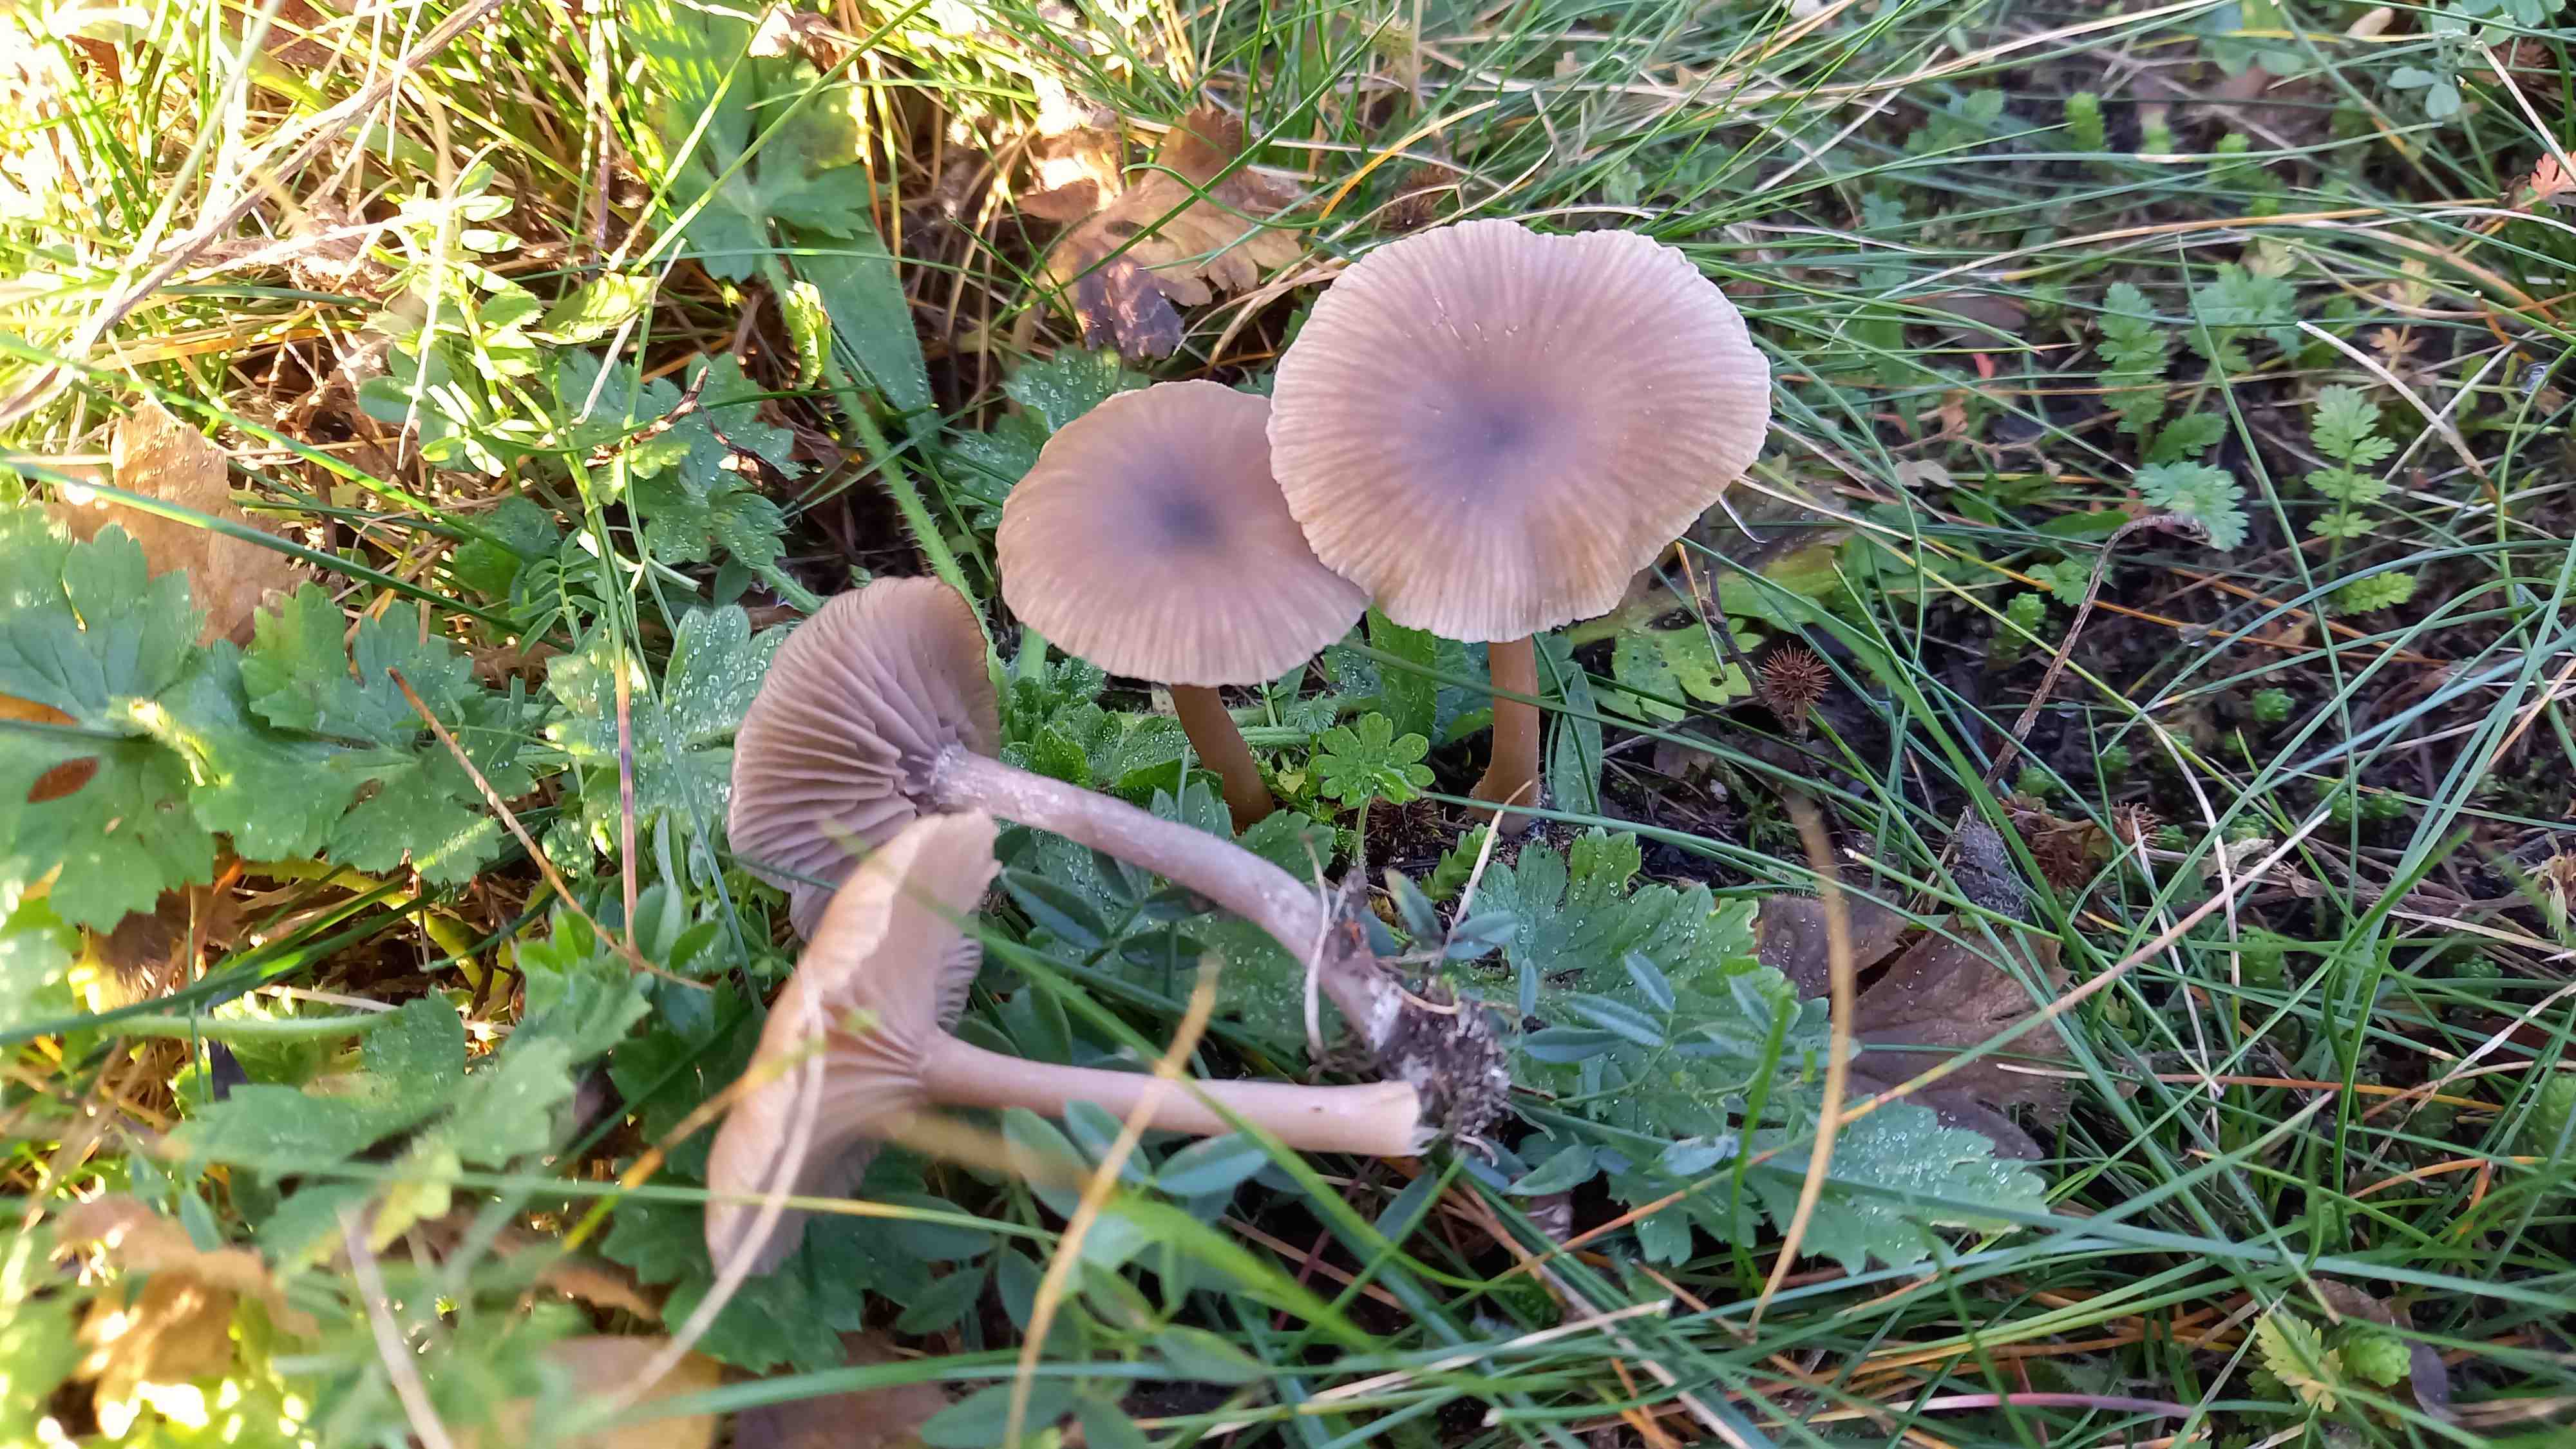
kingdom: Fungi
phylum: Basidiomycota
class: Agaricomycetes
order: Agaricales
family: Pseudoclitocybaceae
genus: Pseudoclitocybe
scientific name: Pseudoclitocybe expallens
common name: lille bægertragthat
